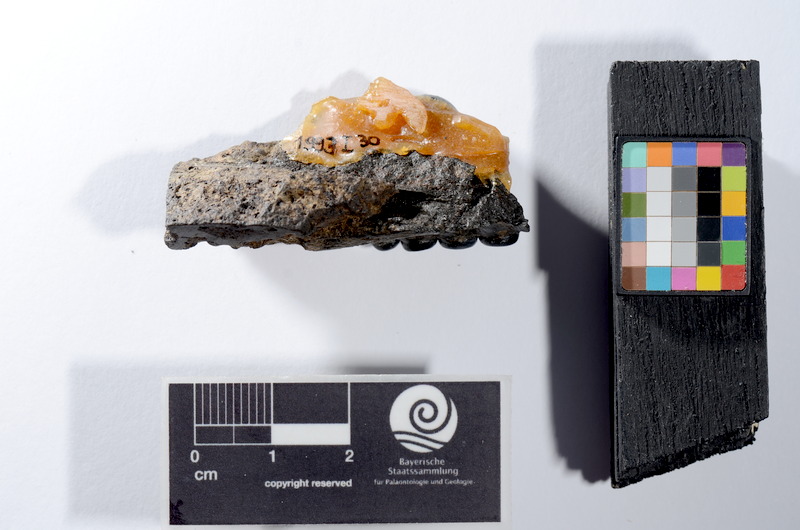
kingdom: Animalia
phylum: Chordata
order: Lepisosteiformes
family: Lepidotidae
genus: Lepidotes
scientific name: Lepidotes
